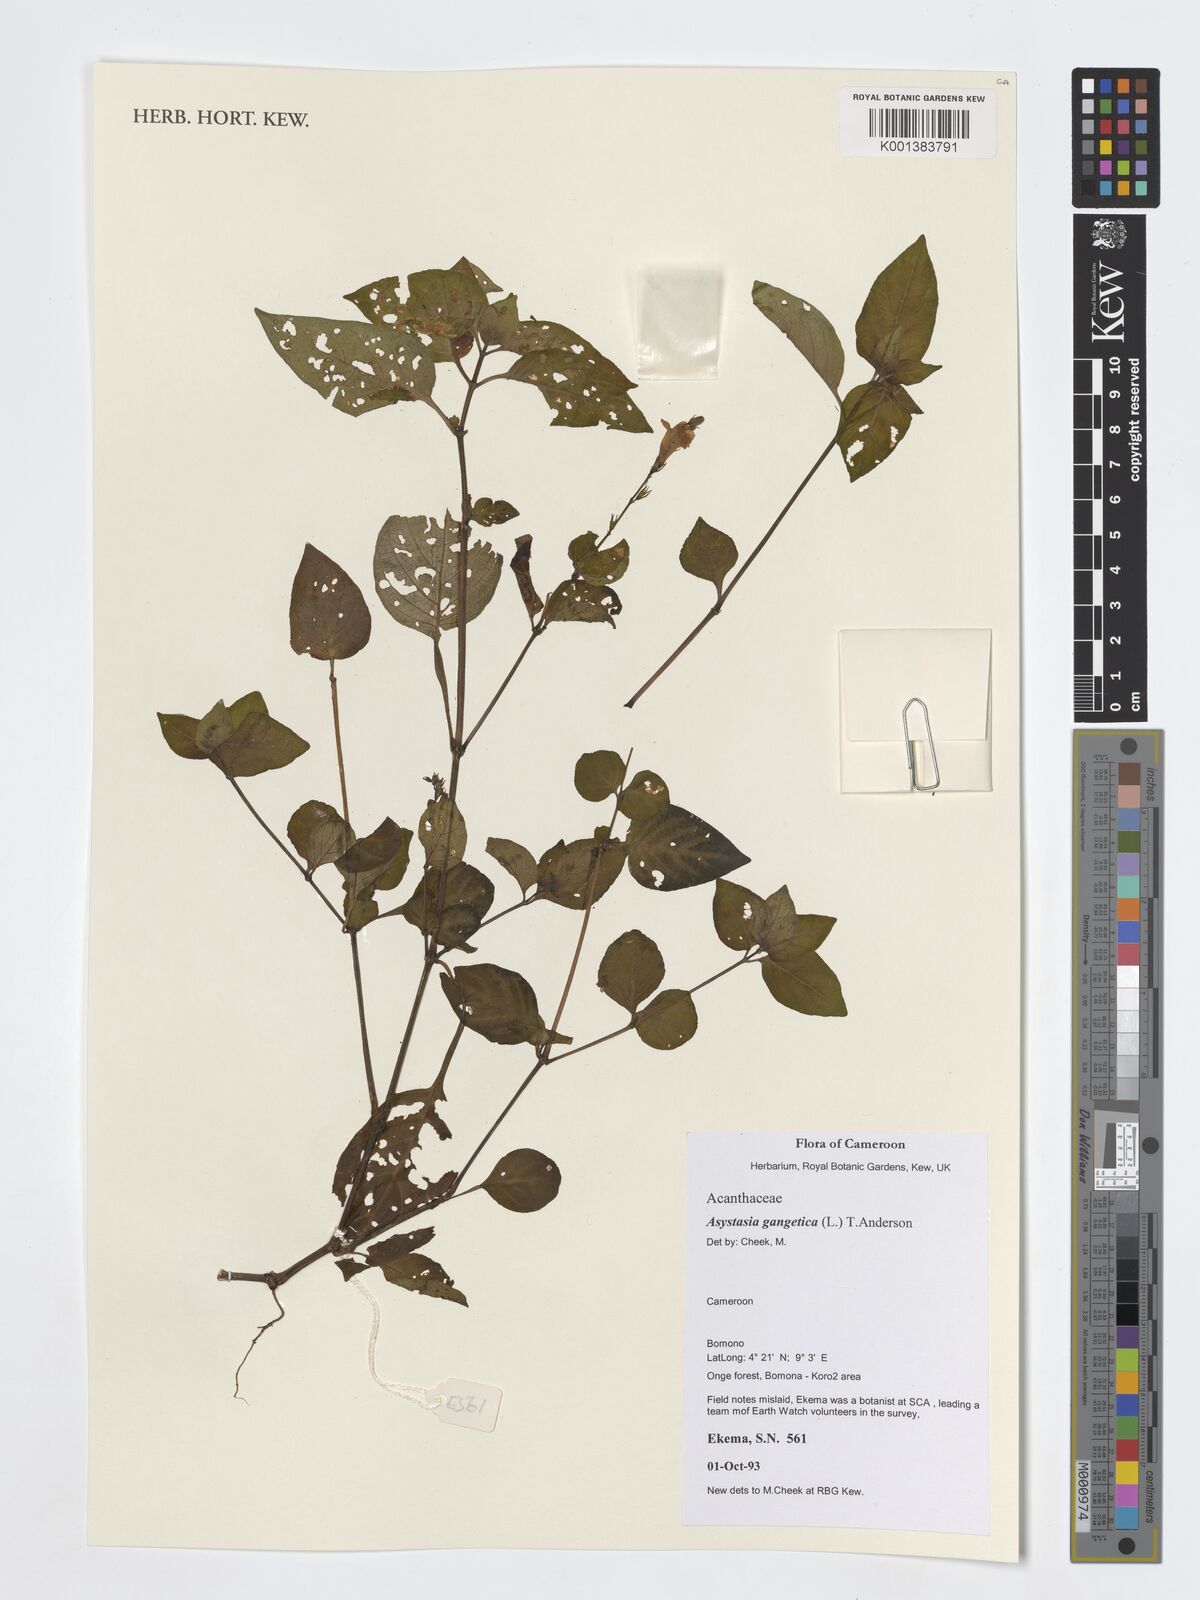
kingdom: Plantae
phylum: Tracheophyta
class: Magnoliopsida
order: Lamiales
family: Acanthaceae
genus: Asystasia
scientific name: Asystasia gangetica
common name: Chinese violet
